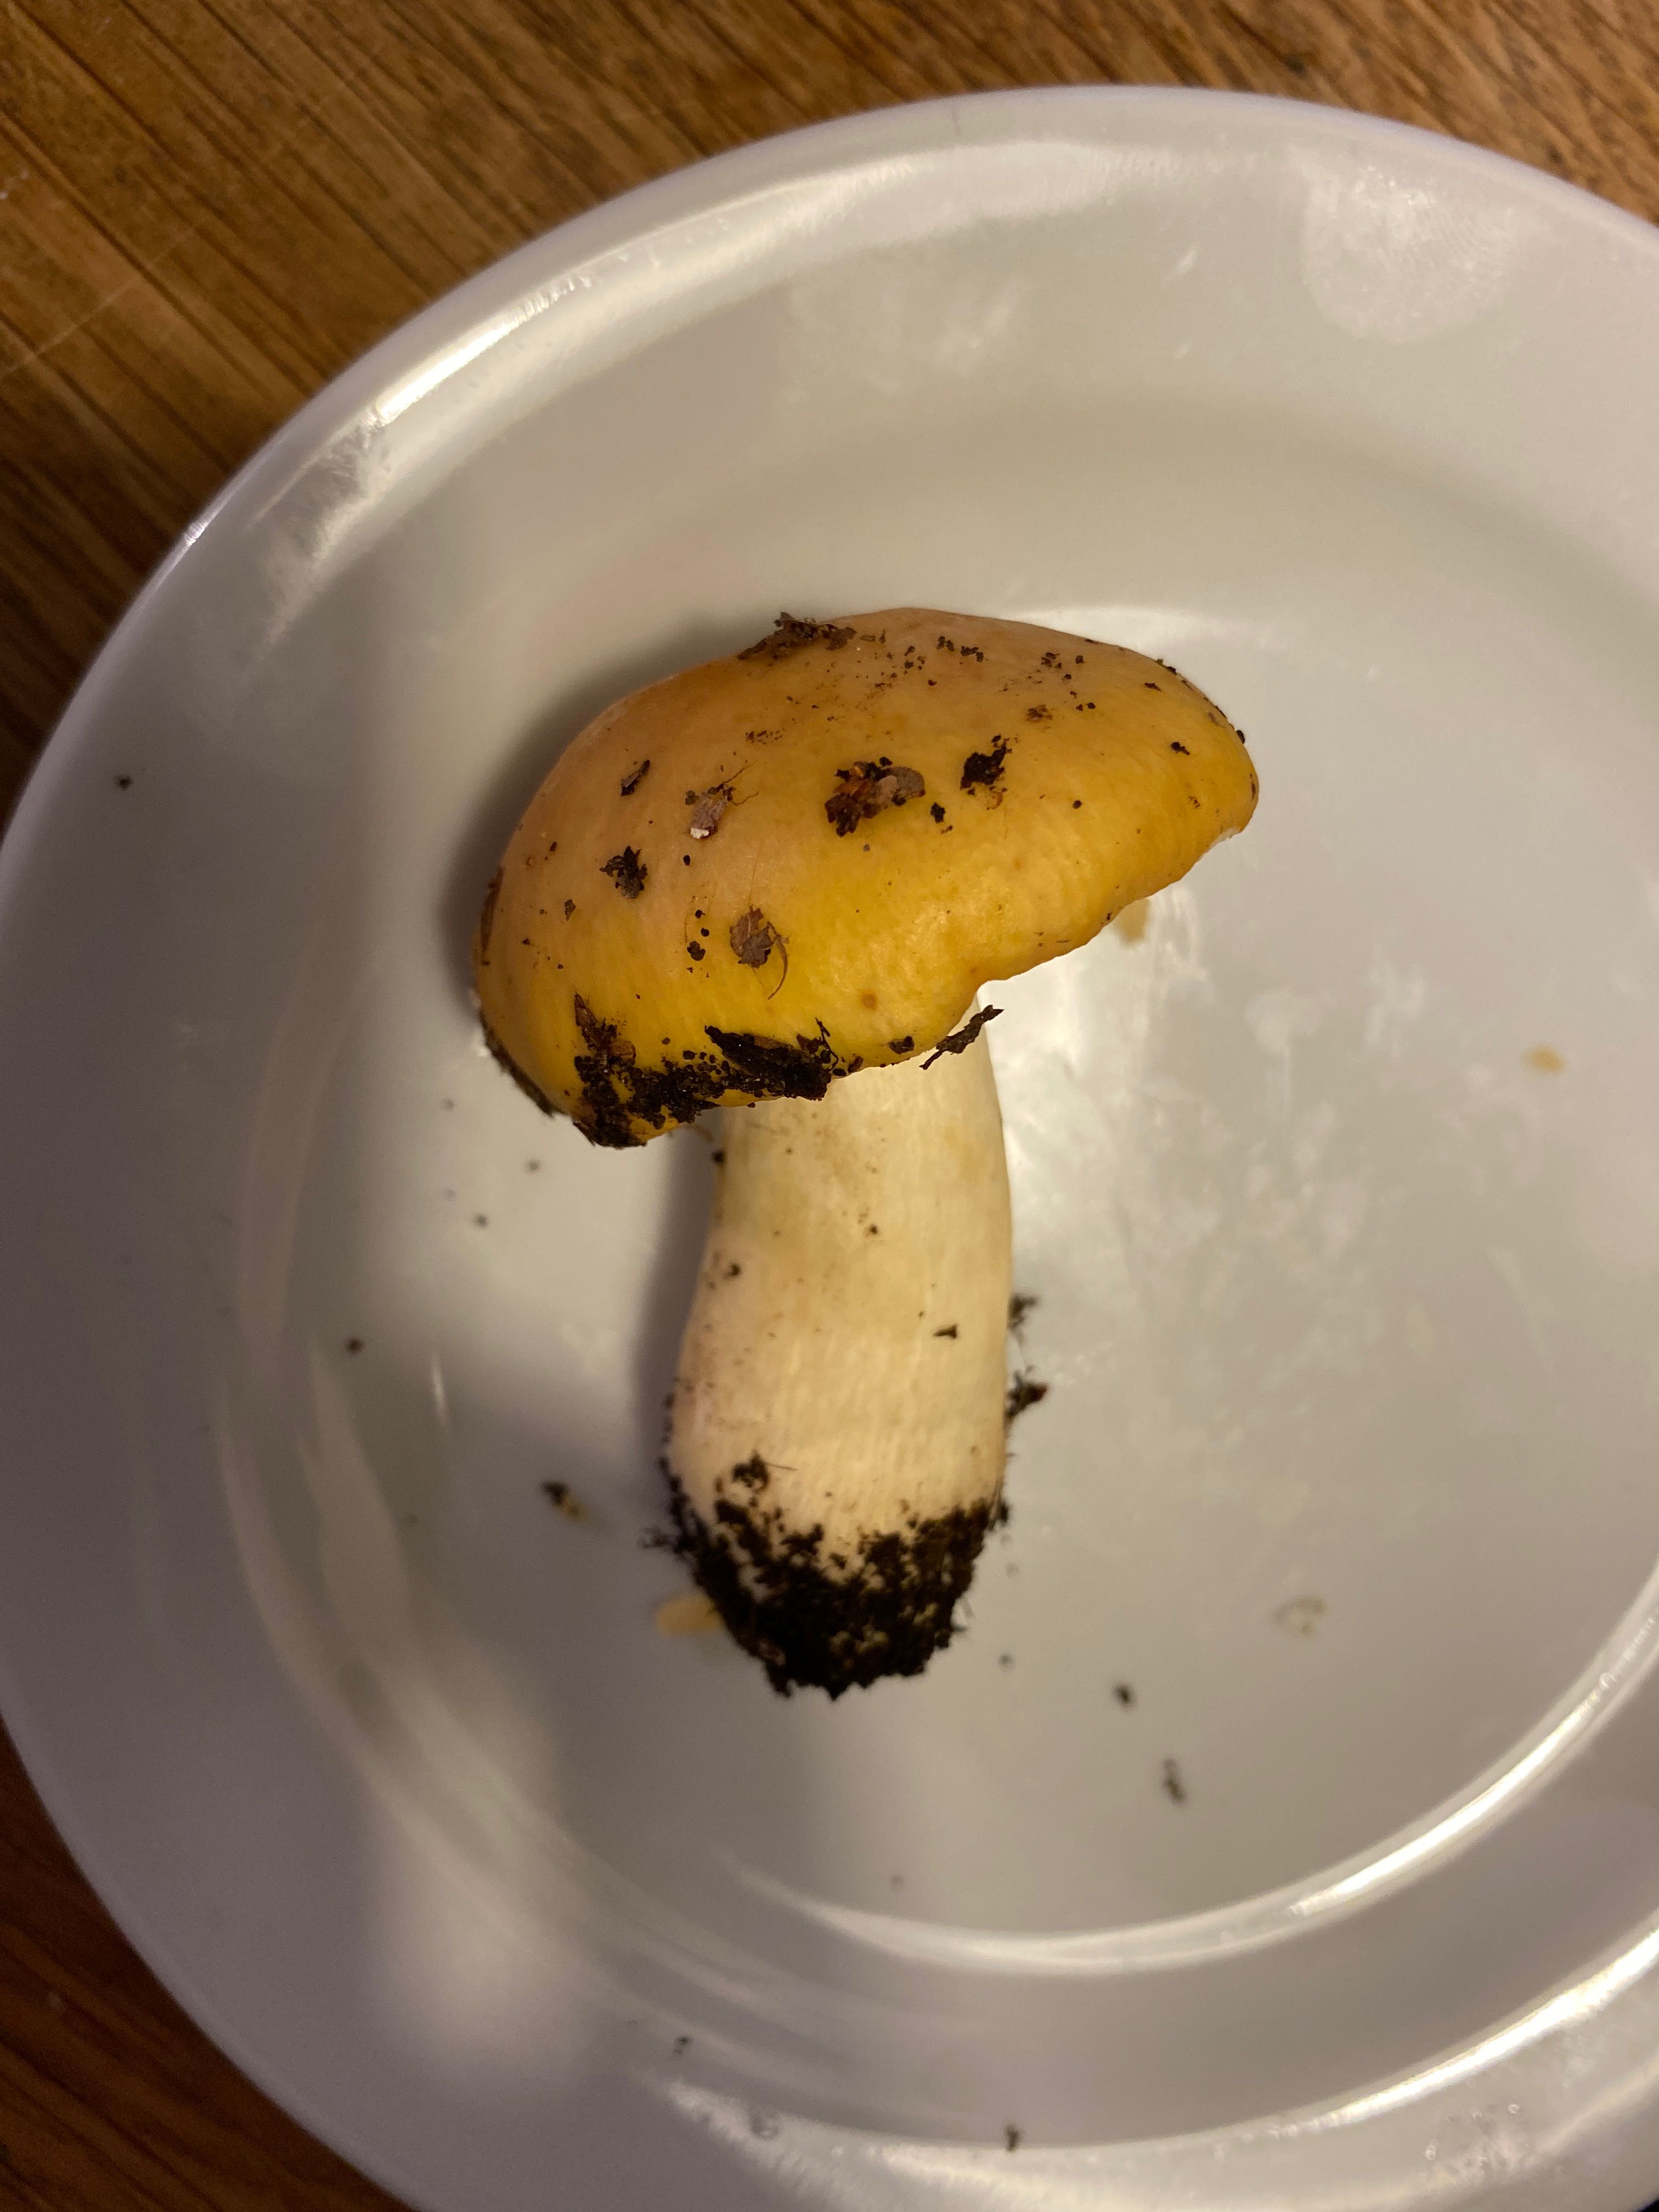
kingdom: Fungi
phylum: Basidiomycota
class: Agaricomycetes
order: Russulales
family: Russulaceae
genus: Russula
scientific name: Russula ochroleuca
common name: okkergul skørhat
